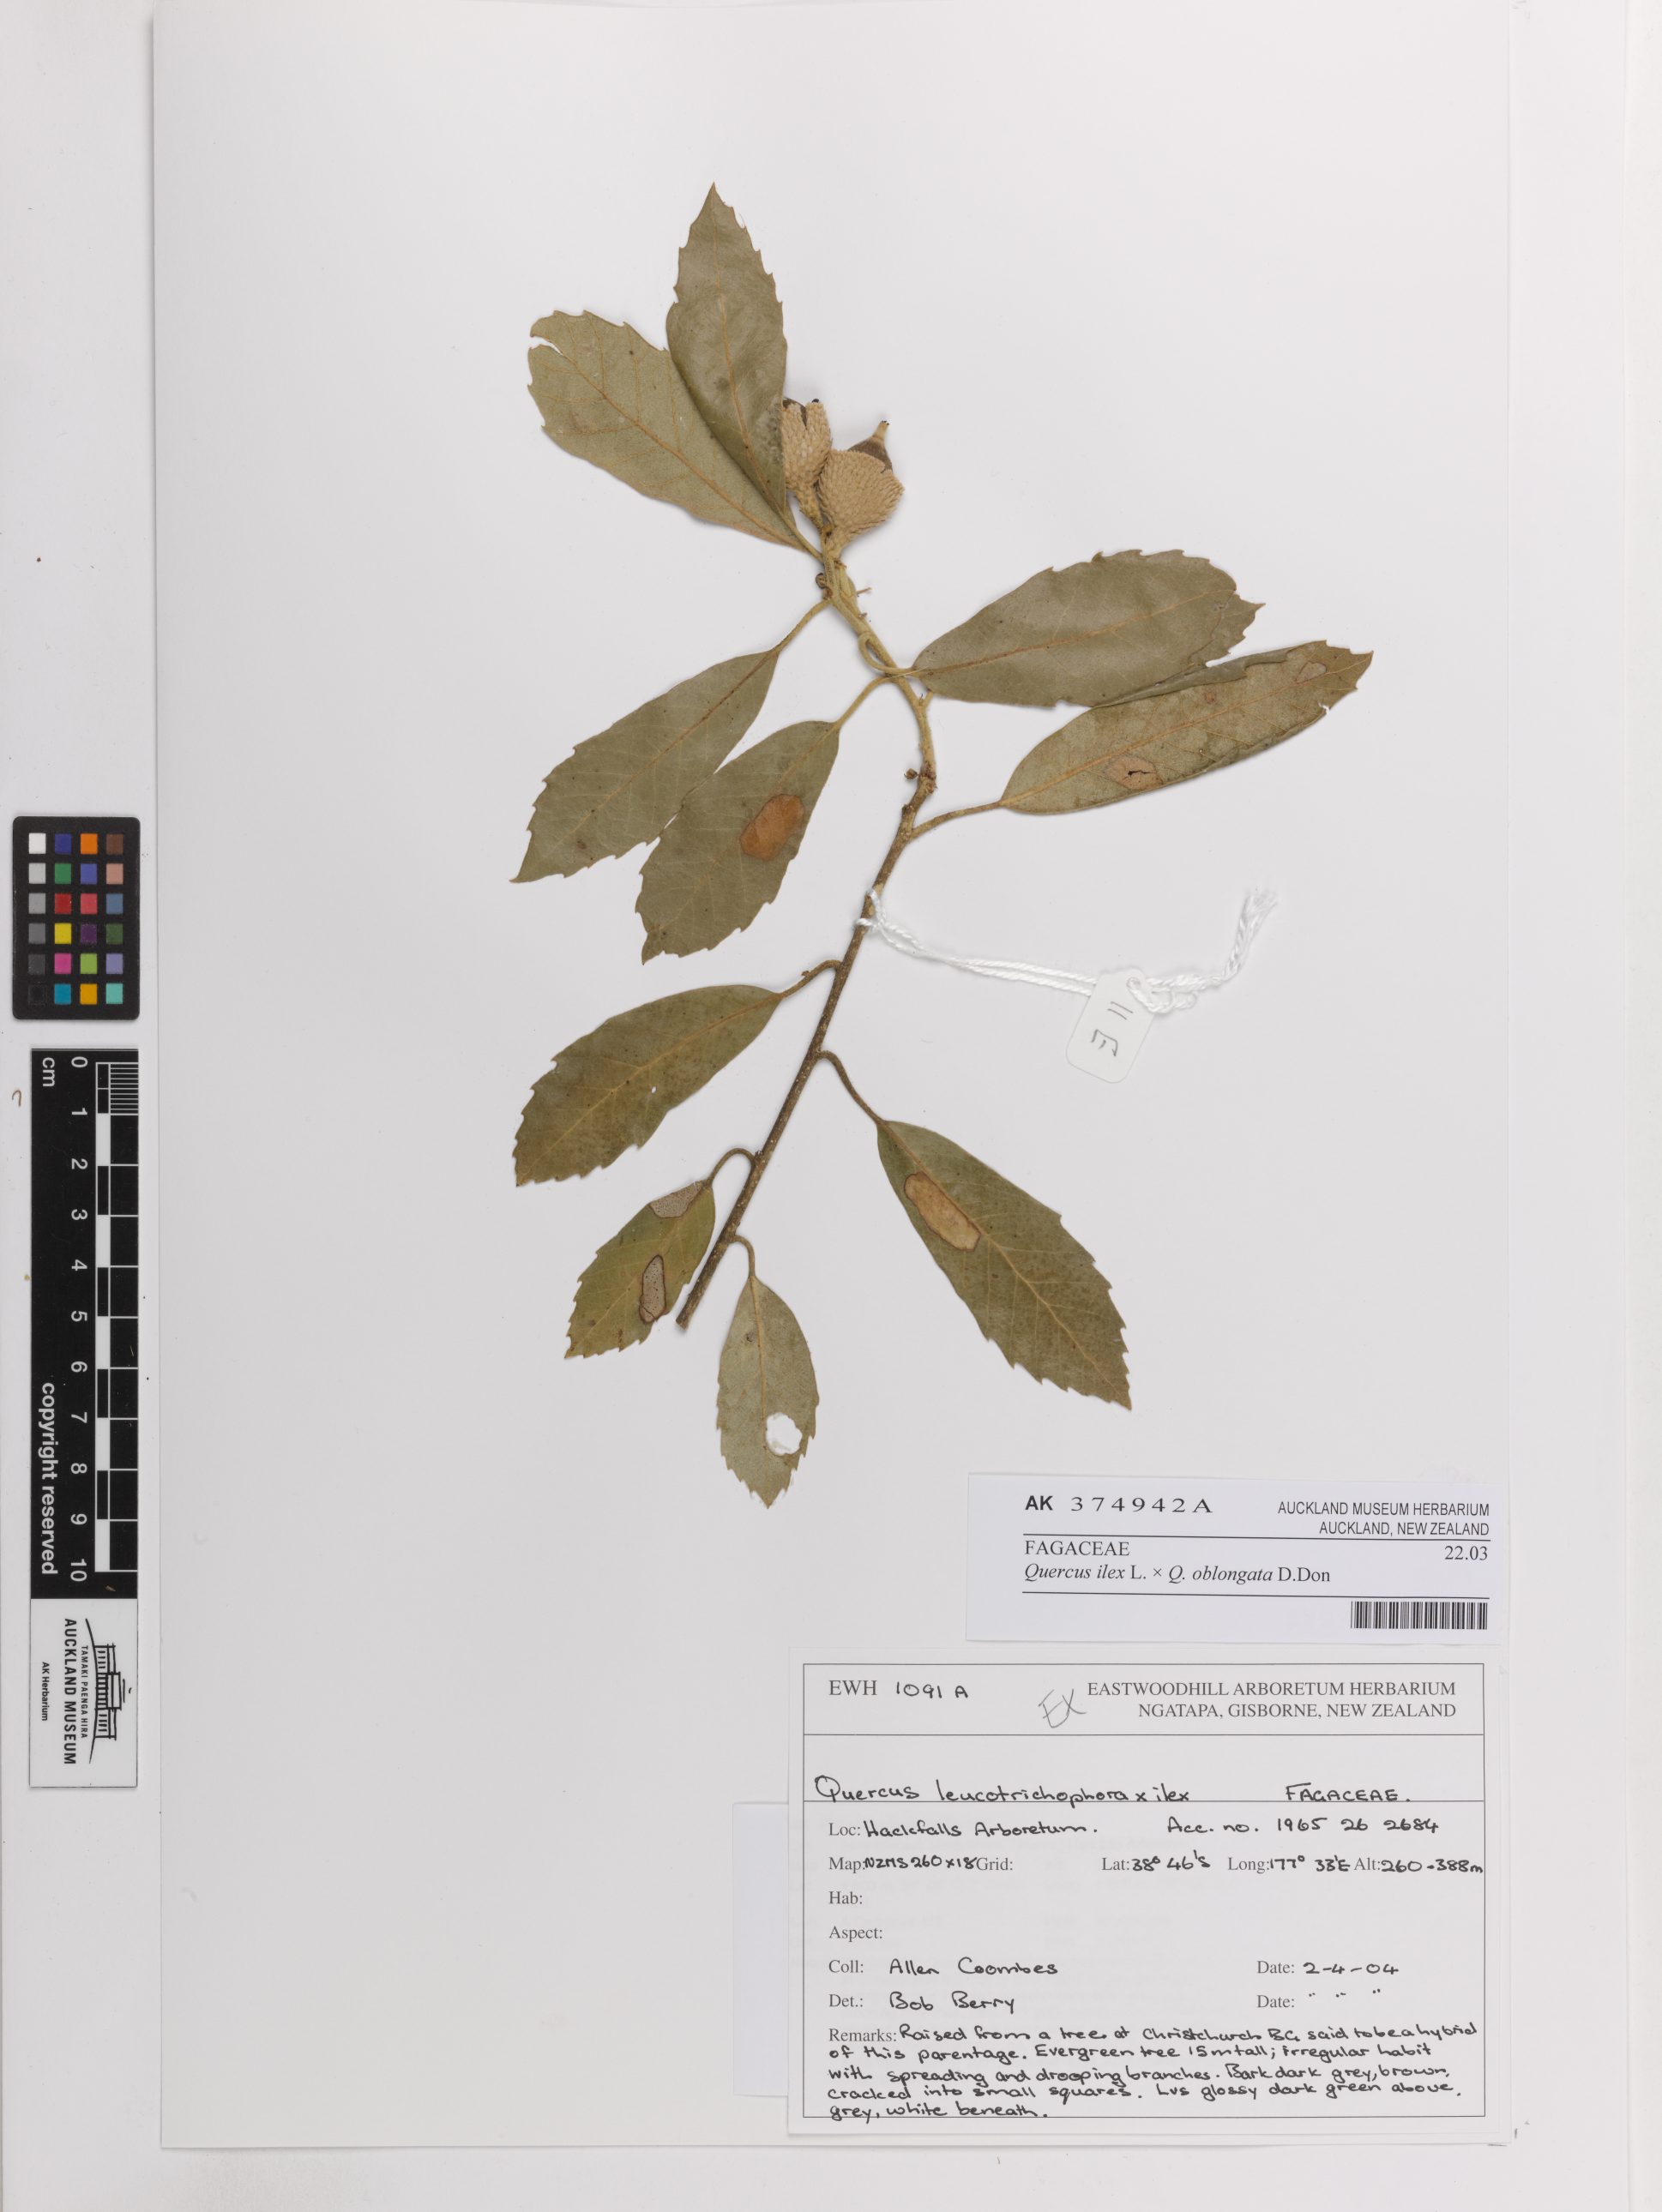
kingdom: Plantae
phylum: Tracheophyta
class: Magnoliopsida
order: Fagales
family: Fagaceae
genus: Quercus
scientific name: Quercus
